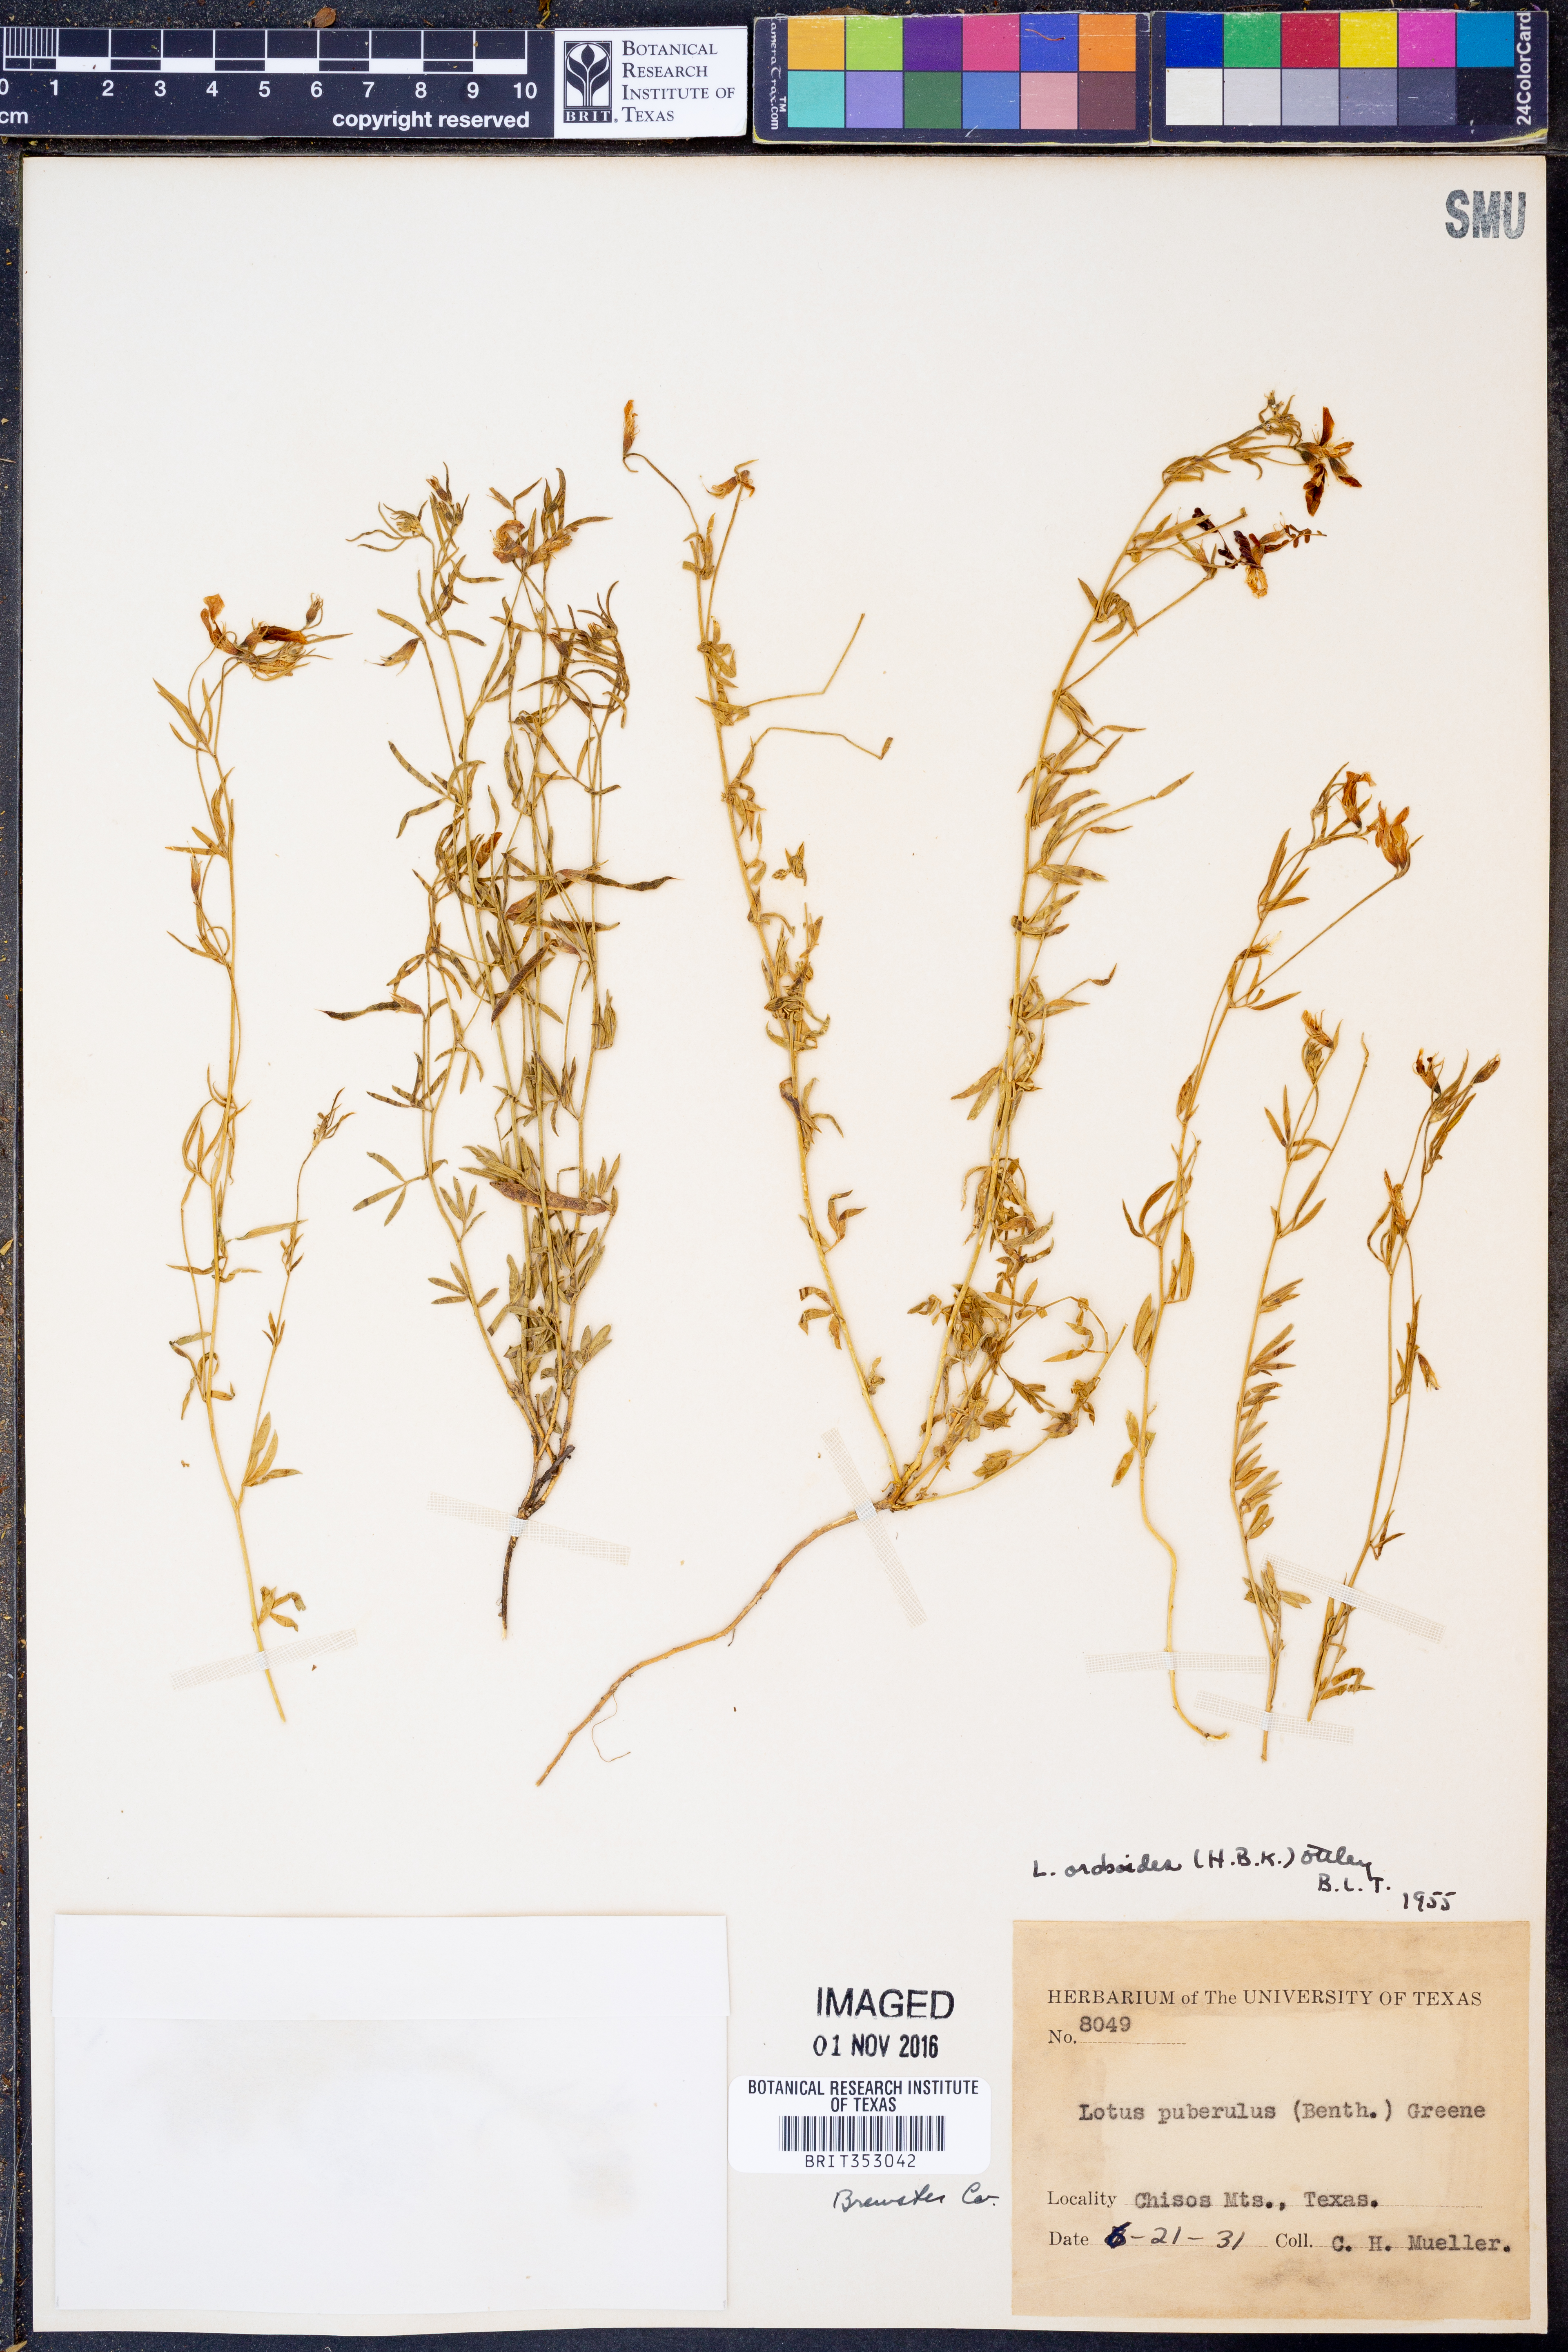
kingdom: Plantae
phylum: Tracheophyta
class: Magnoliopsida
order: Fabales
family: Fabaceae
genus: Acmispon
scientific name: Acmispon oroboides
